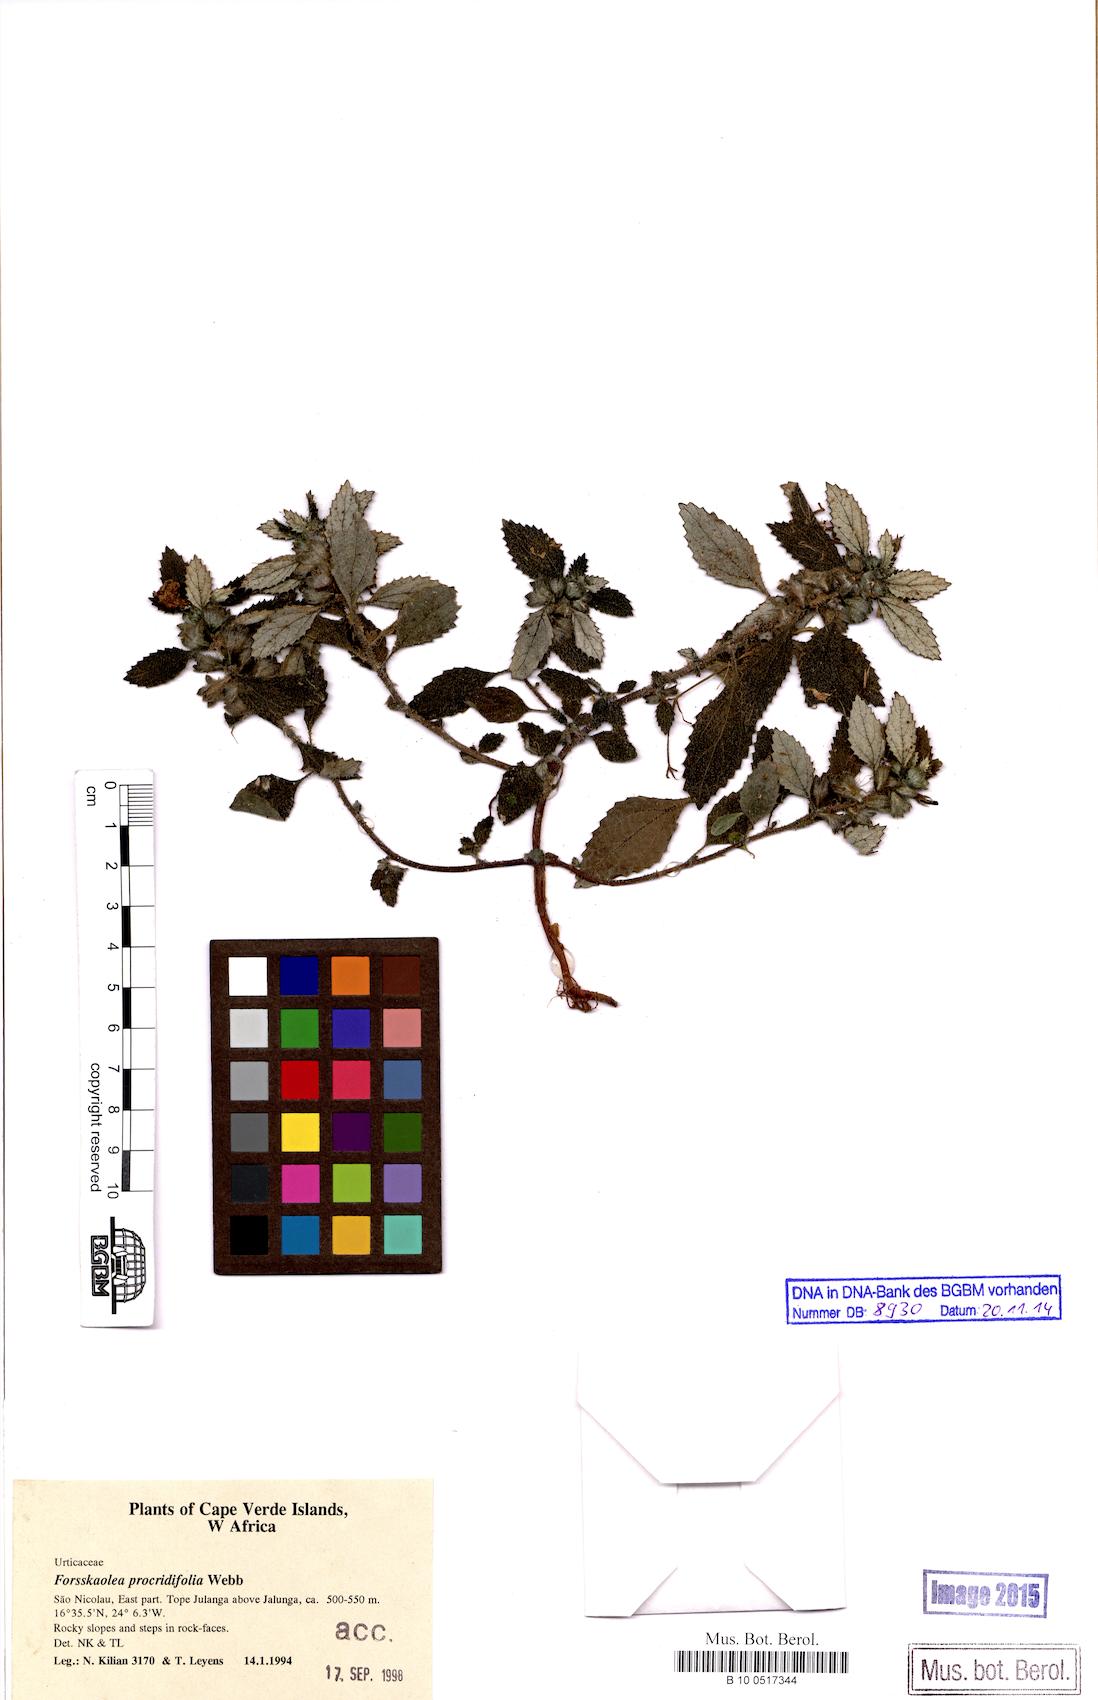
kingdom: Plantae
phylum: Tracheophyta
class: Magnoliopsida
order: Rosales
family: Urticaceae
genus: Forsskaolea
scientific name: Forsskaolea procridifolia
